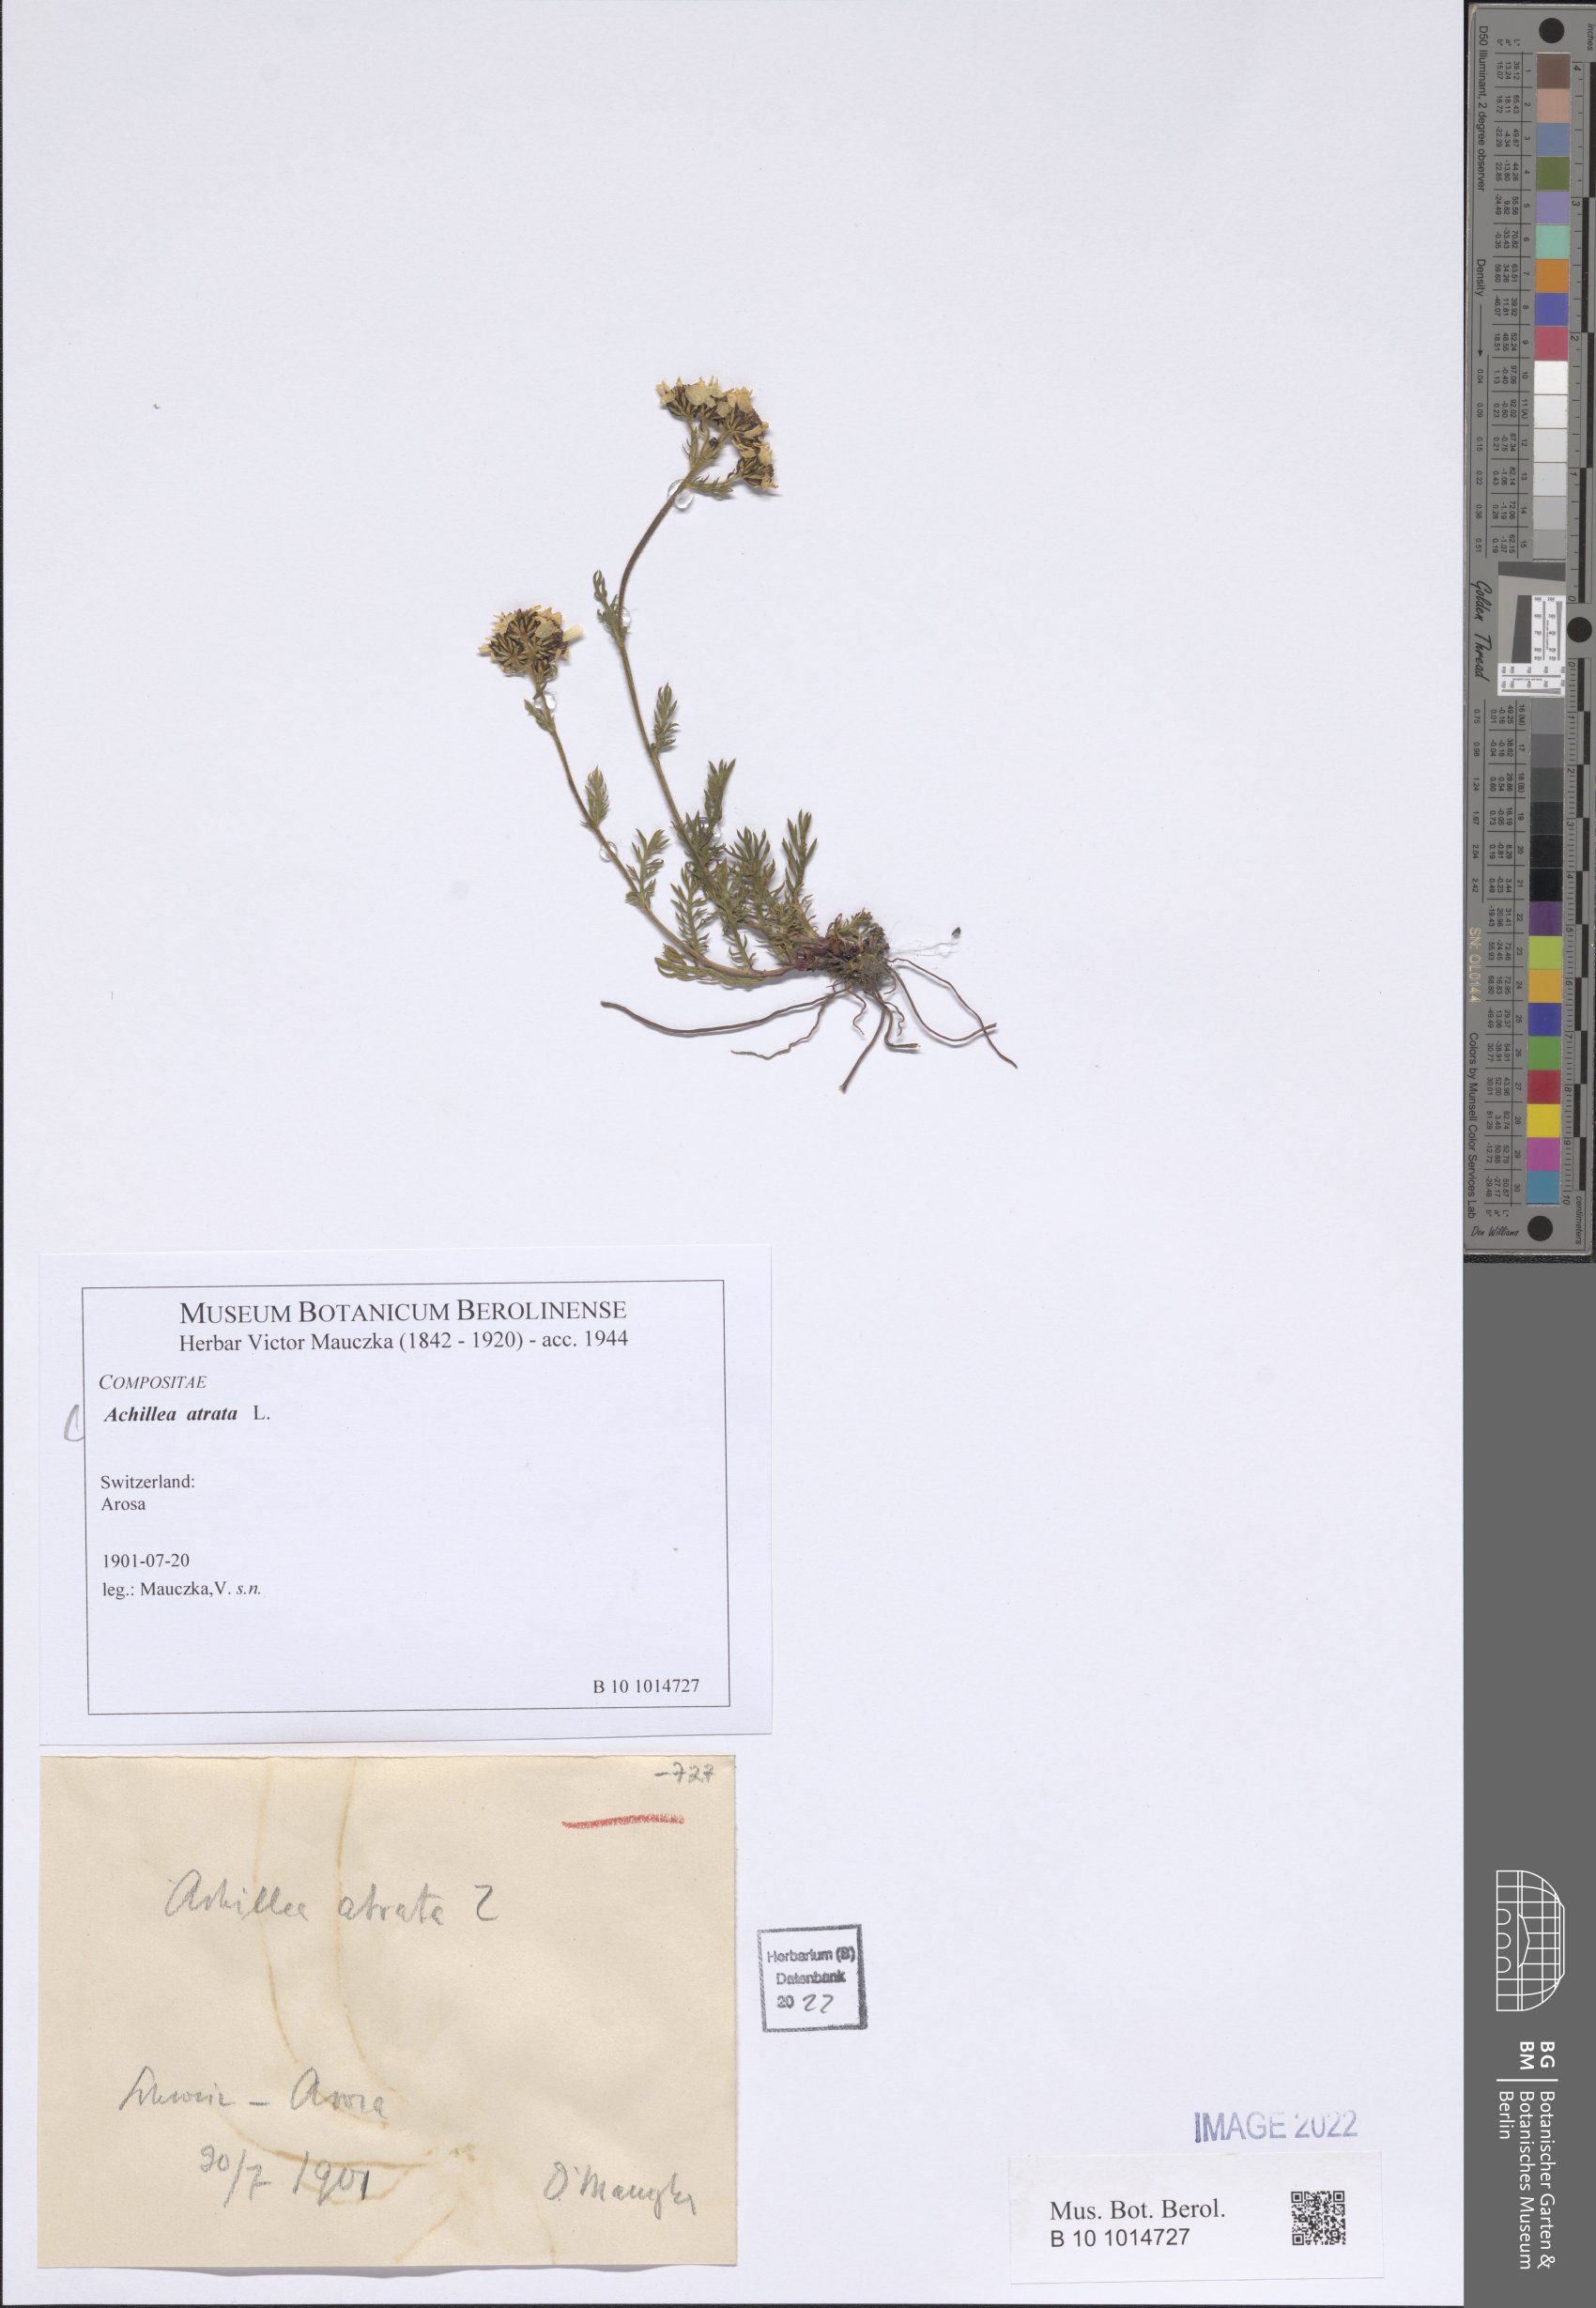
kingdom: Plantae
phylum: Tracheophyta
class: Magnoliopsida
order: Asterales
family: Asteraceae
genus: Achillea
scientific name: Achillea atrata
